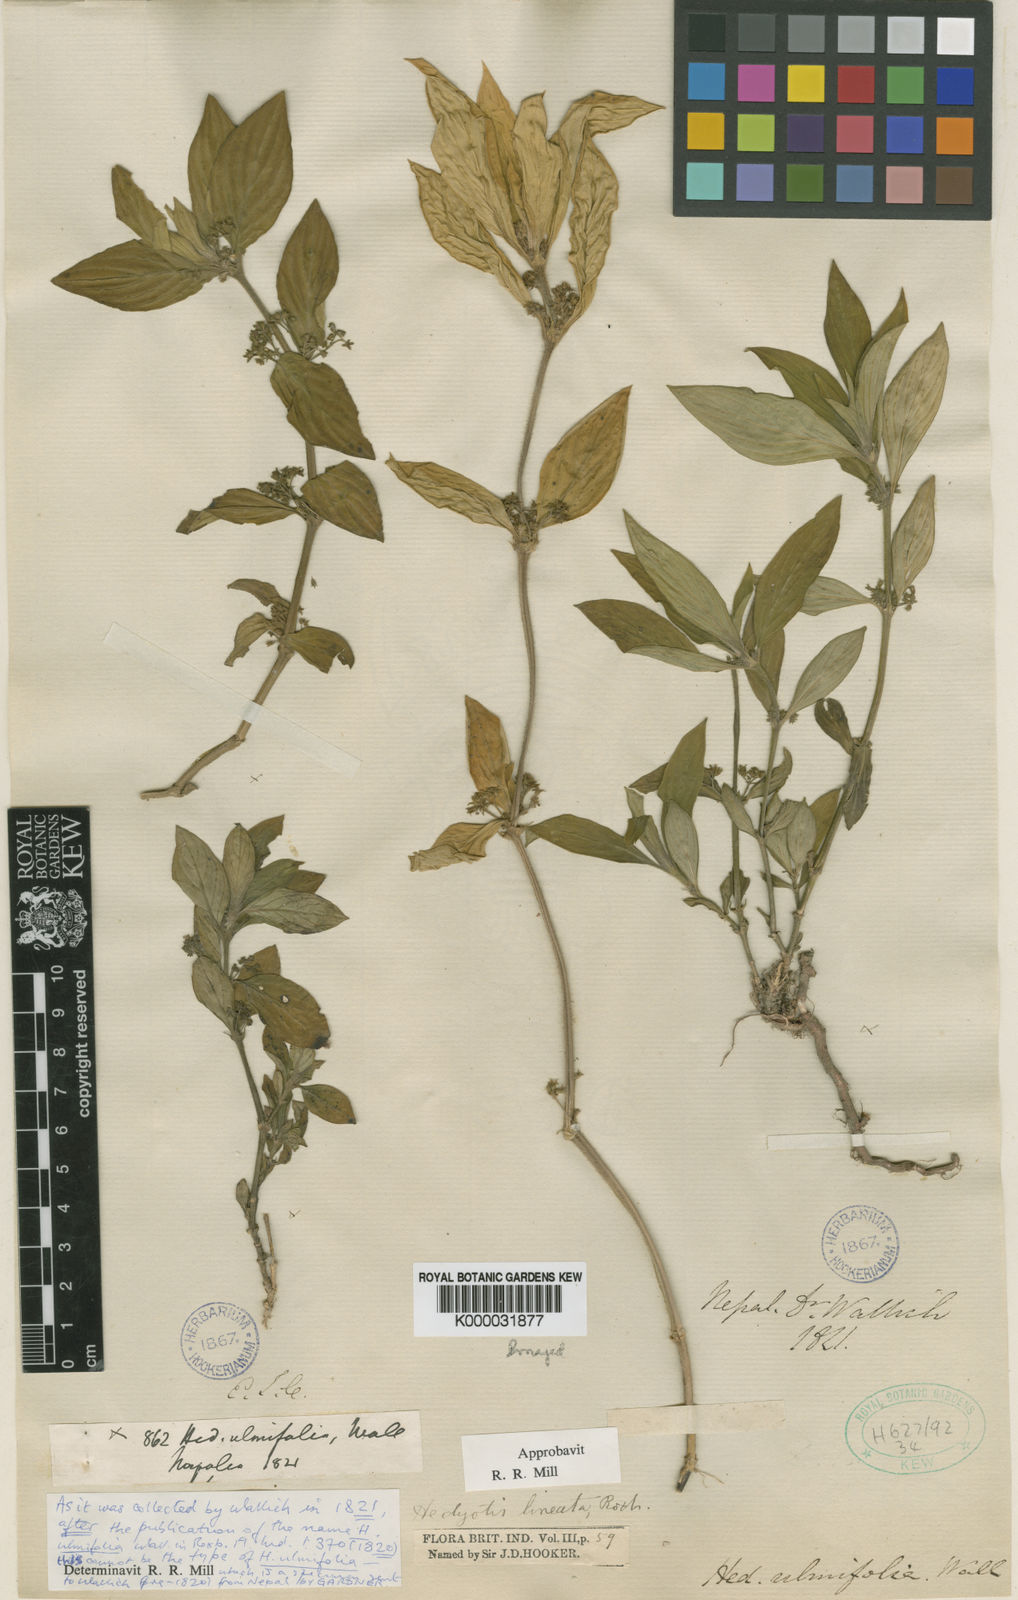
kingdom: Plantae
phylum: Tracheophyta
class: Magnoliopsida
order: Gentianales
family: Rubiaceae
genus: Exallage
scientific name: Exallage cristata
